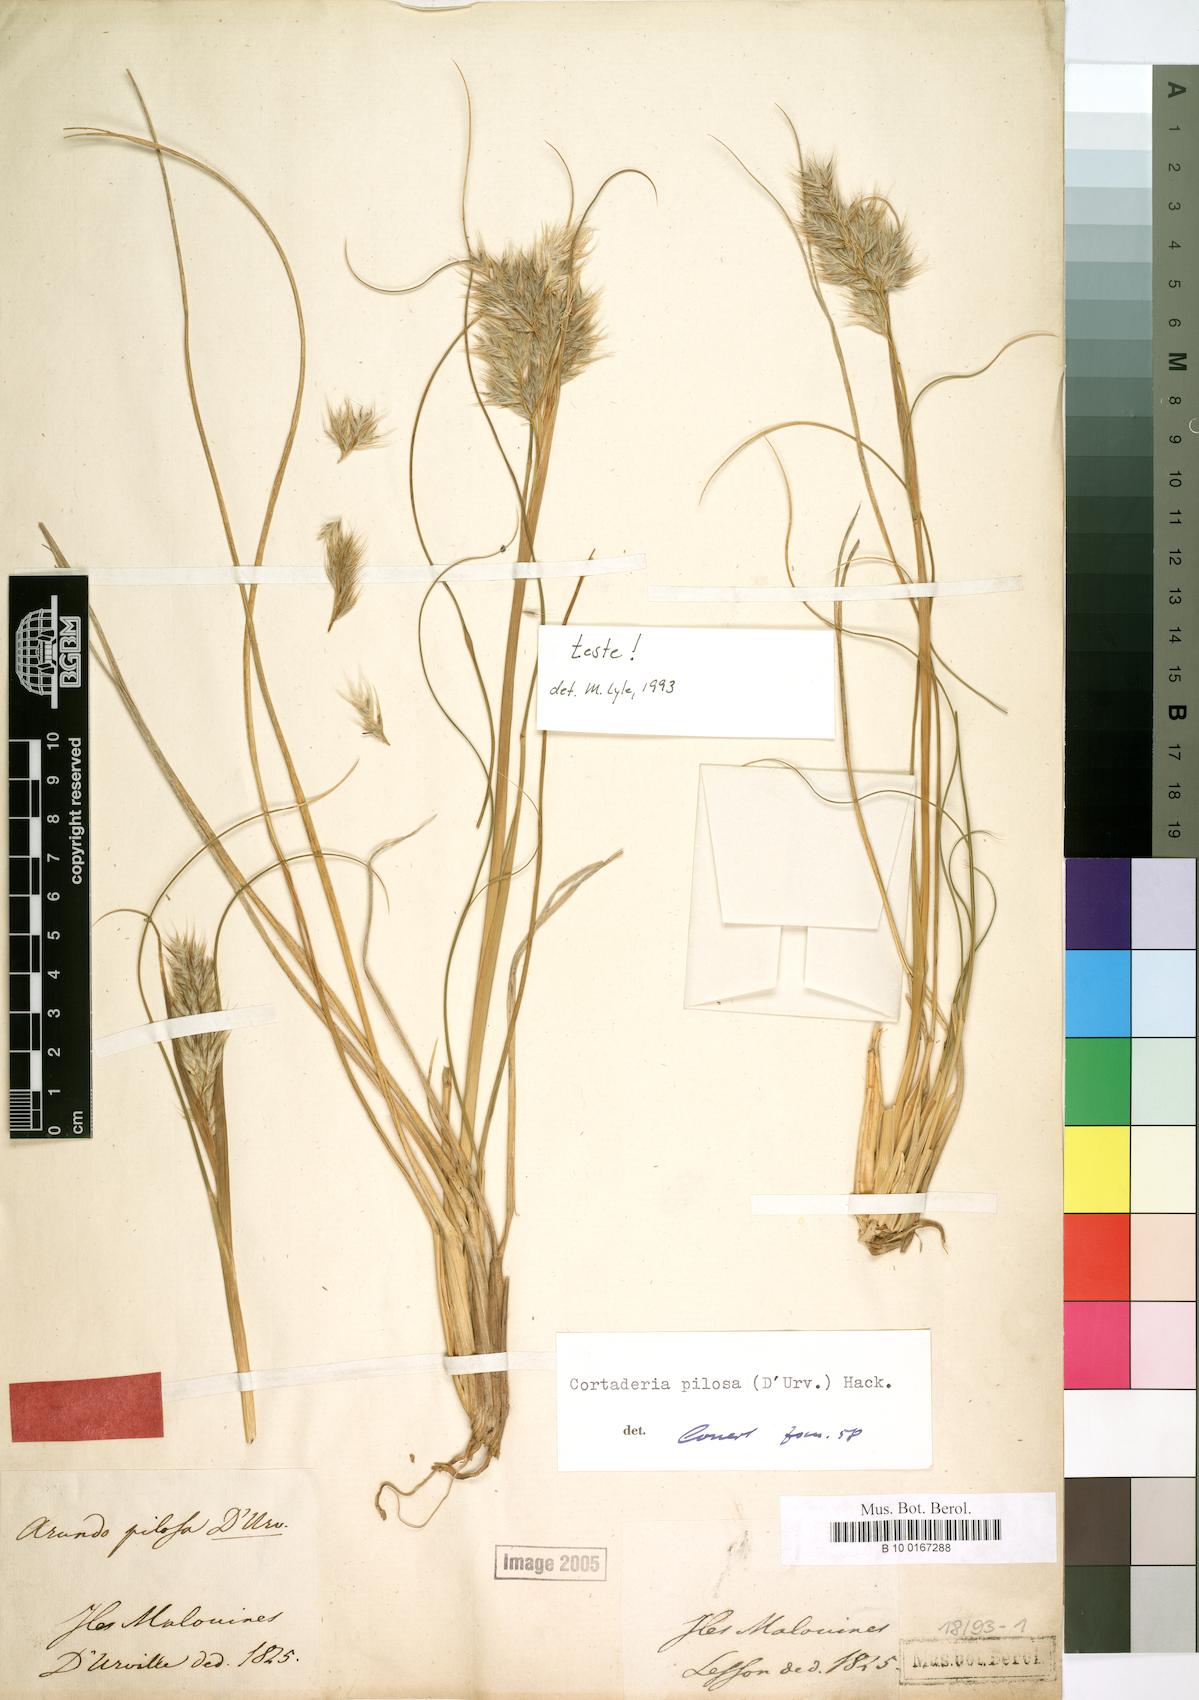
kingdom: Plantae
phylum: Tracheophyta
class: Liliopsida
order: Poales
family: Poaceae
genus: Cortaderia
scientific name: Cortaderia egmontiana
